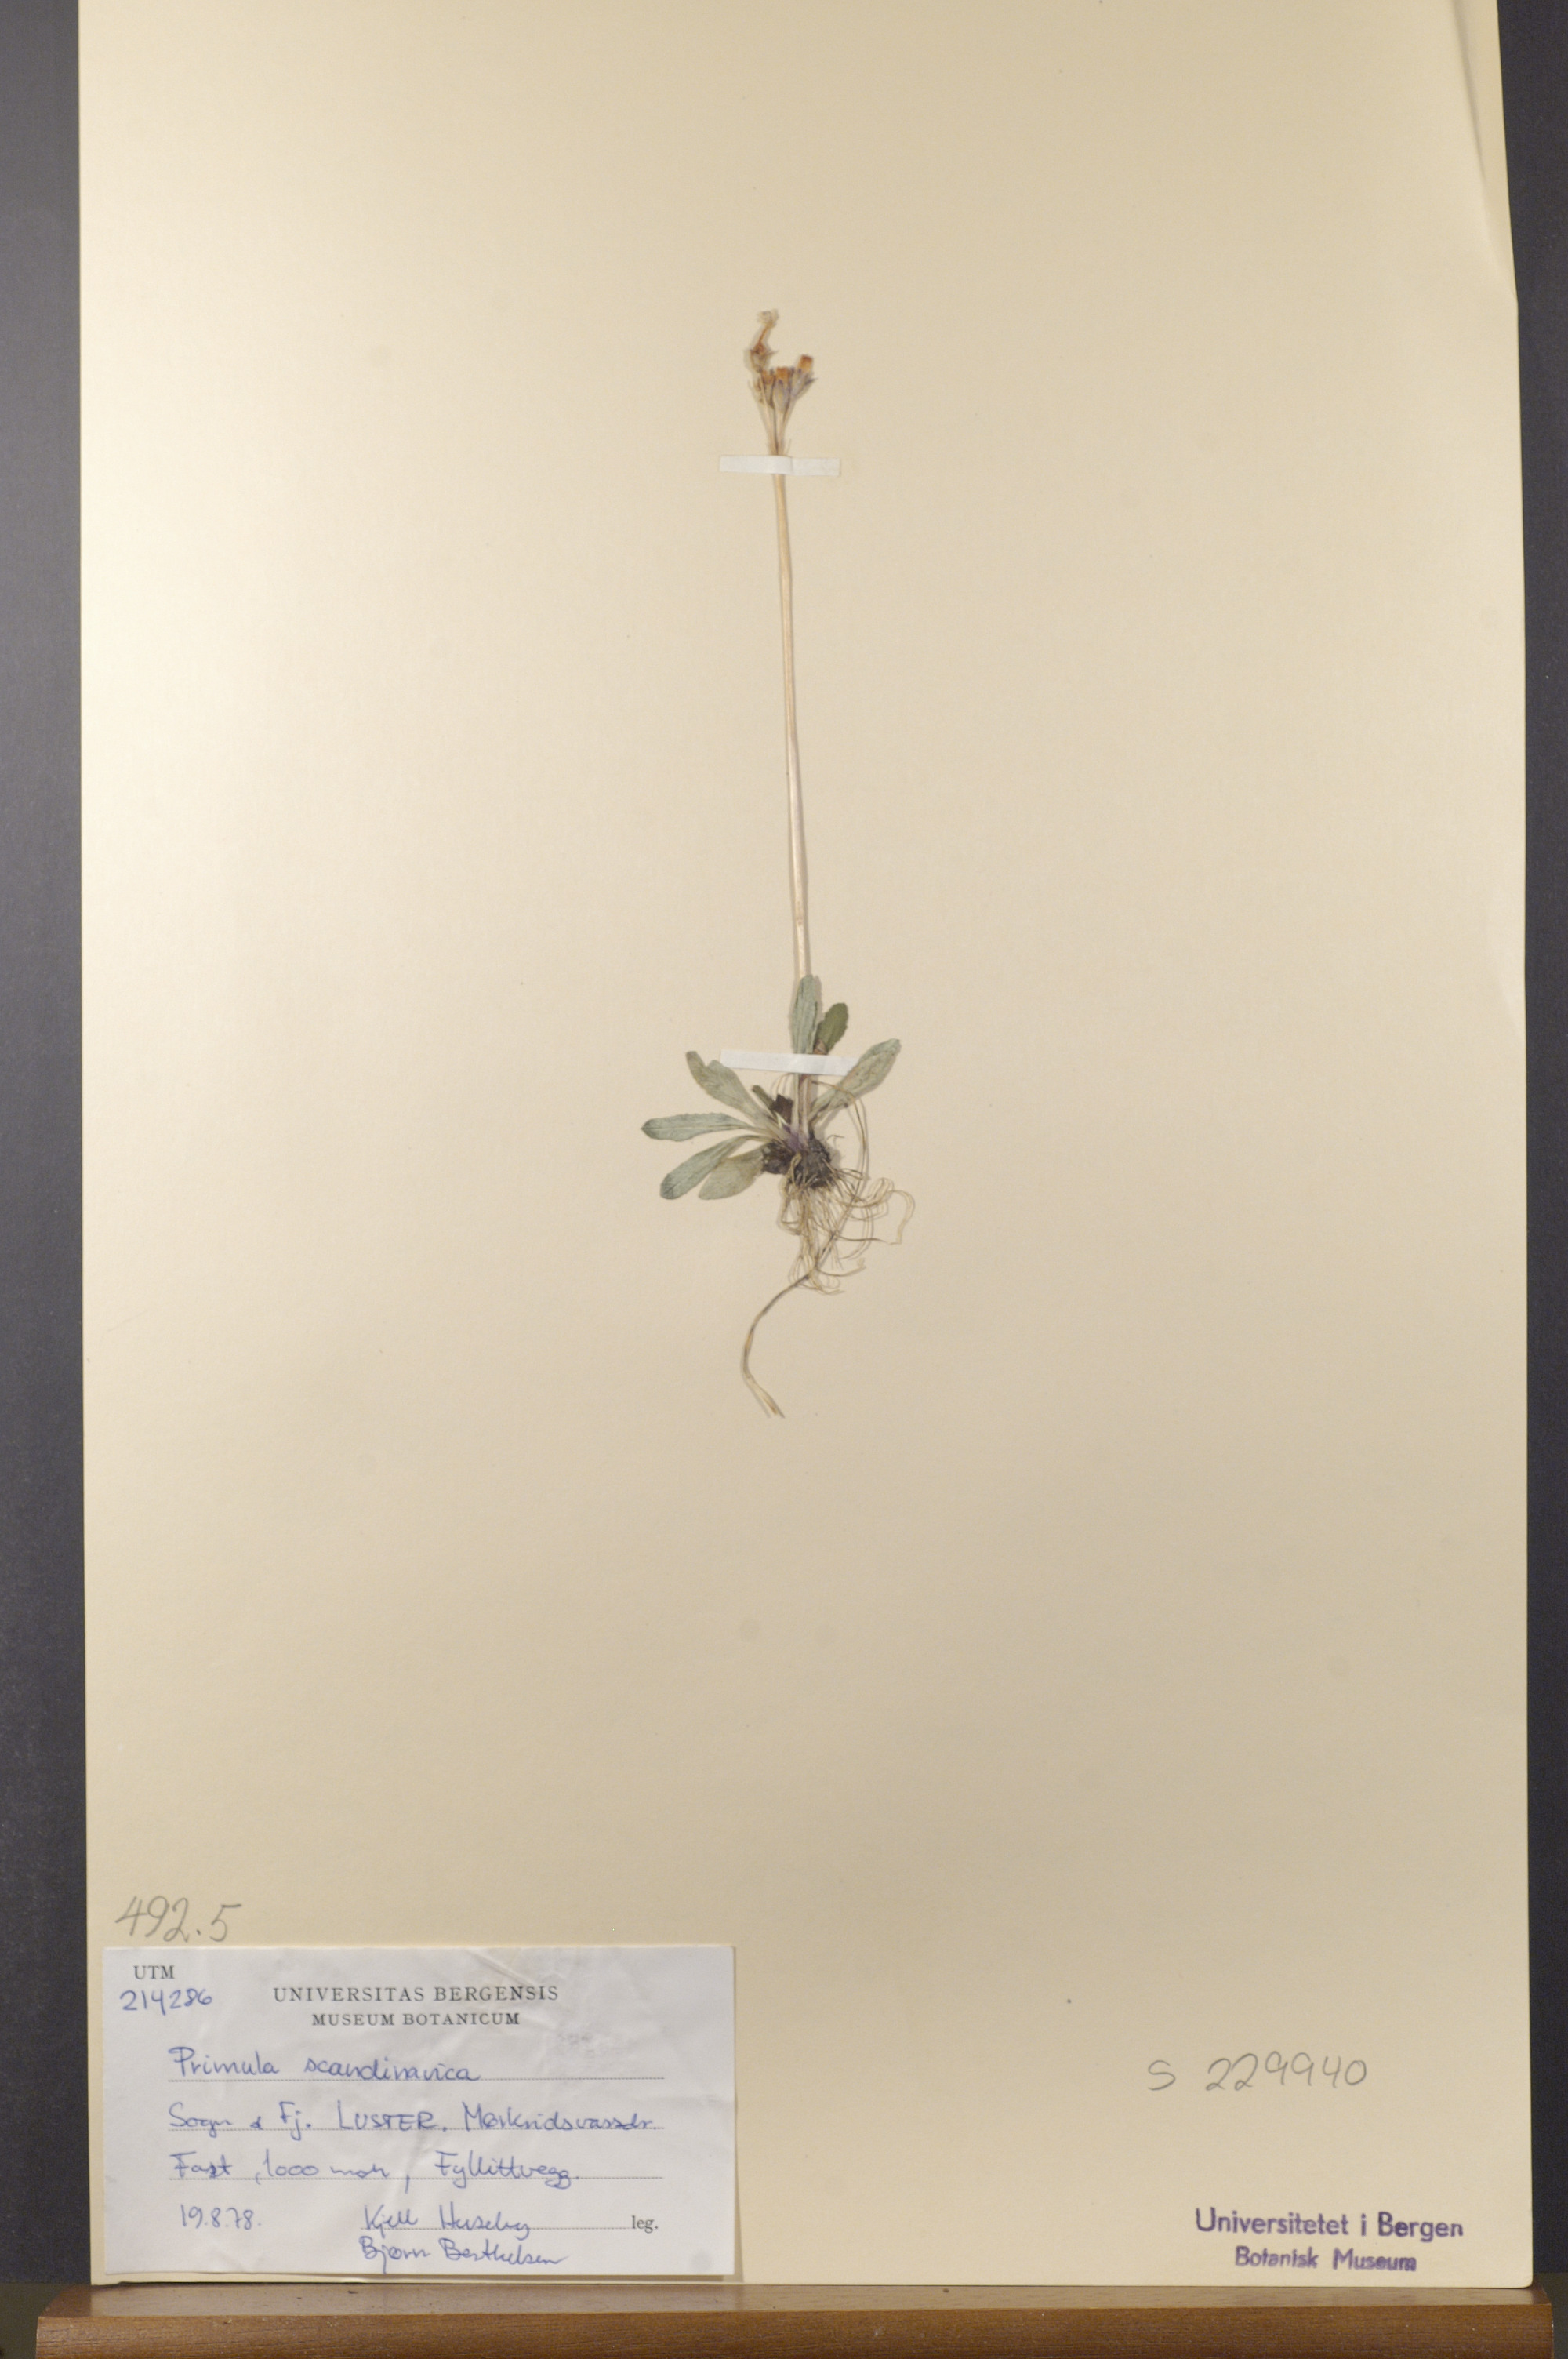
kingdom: Plantae
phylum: Tracheophyta
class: Magnoliopsida
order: Ericales
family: Primulaceae
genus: Primula
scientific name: Primula scandinavica
